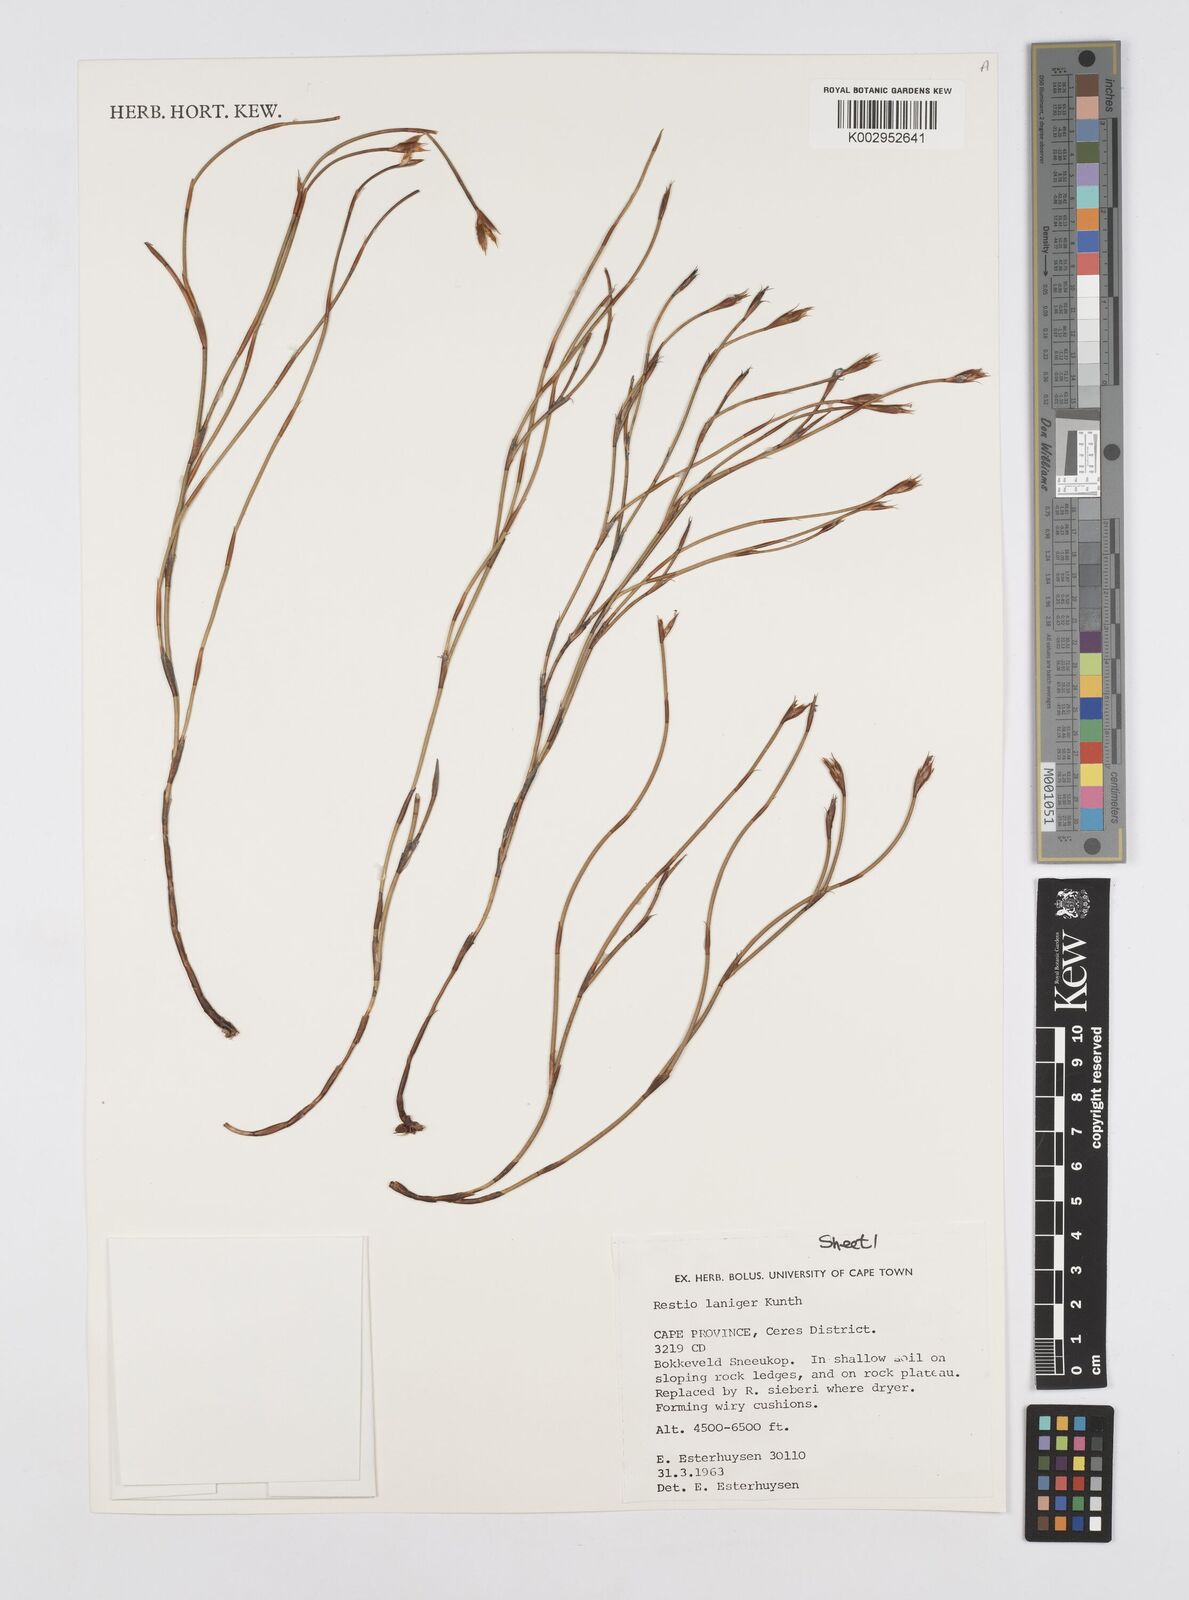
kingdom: Plantae
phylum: Tracheophyta
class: Liliopsida
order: Poales
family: Restionaceae
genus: Restio
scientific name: Restio laniger
